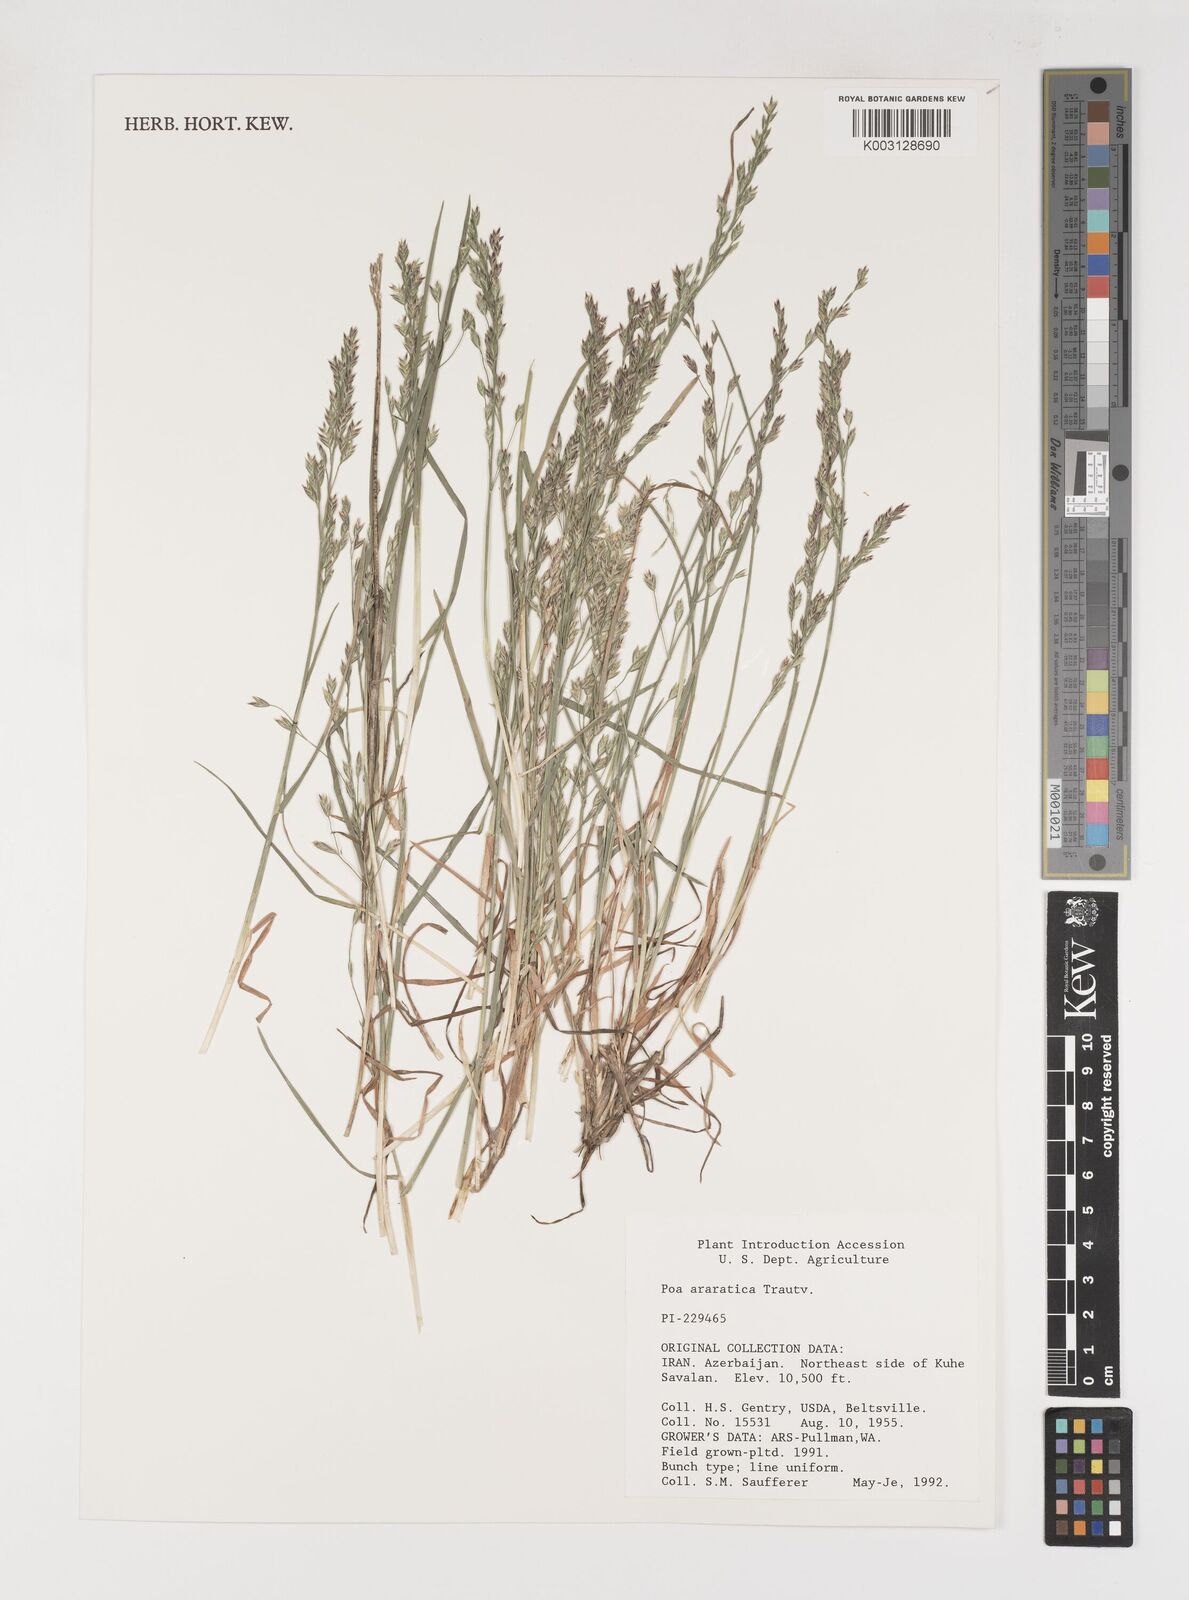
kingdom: Plantae
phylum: Tracheophyta
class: Liliopsida
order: Poales
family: Poaceae
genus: Poa
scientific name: Poa araratica
